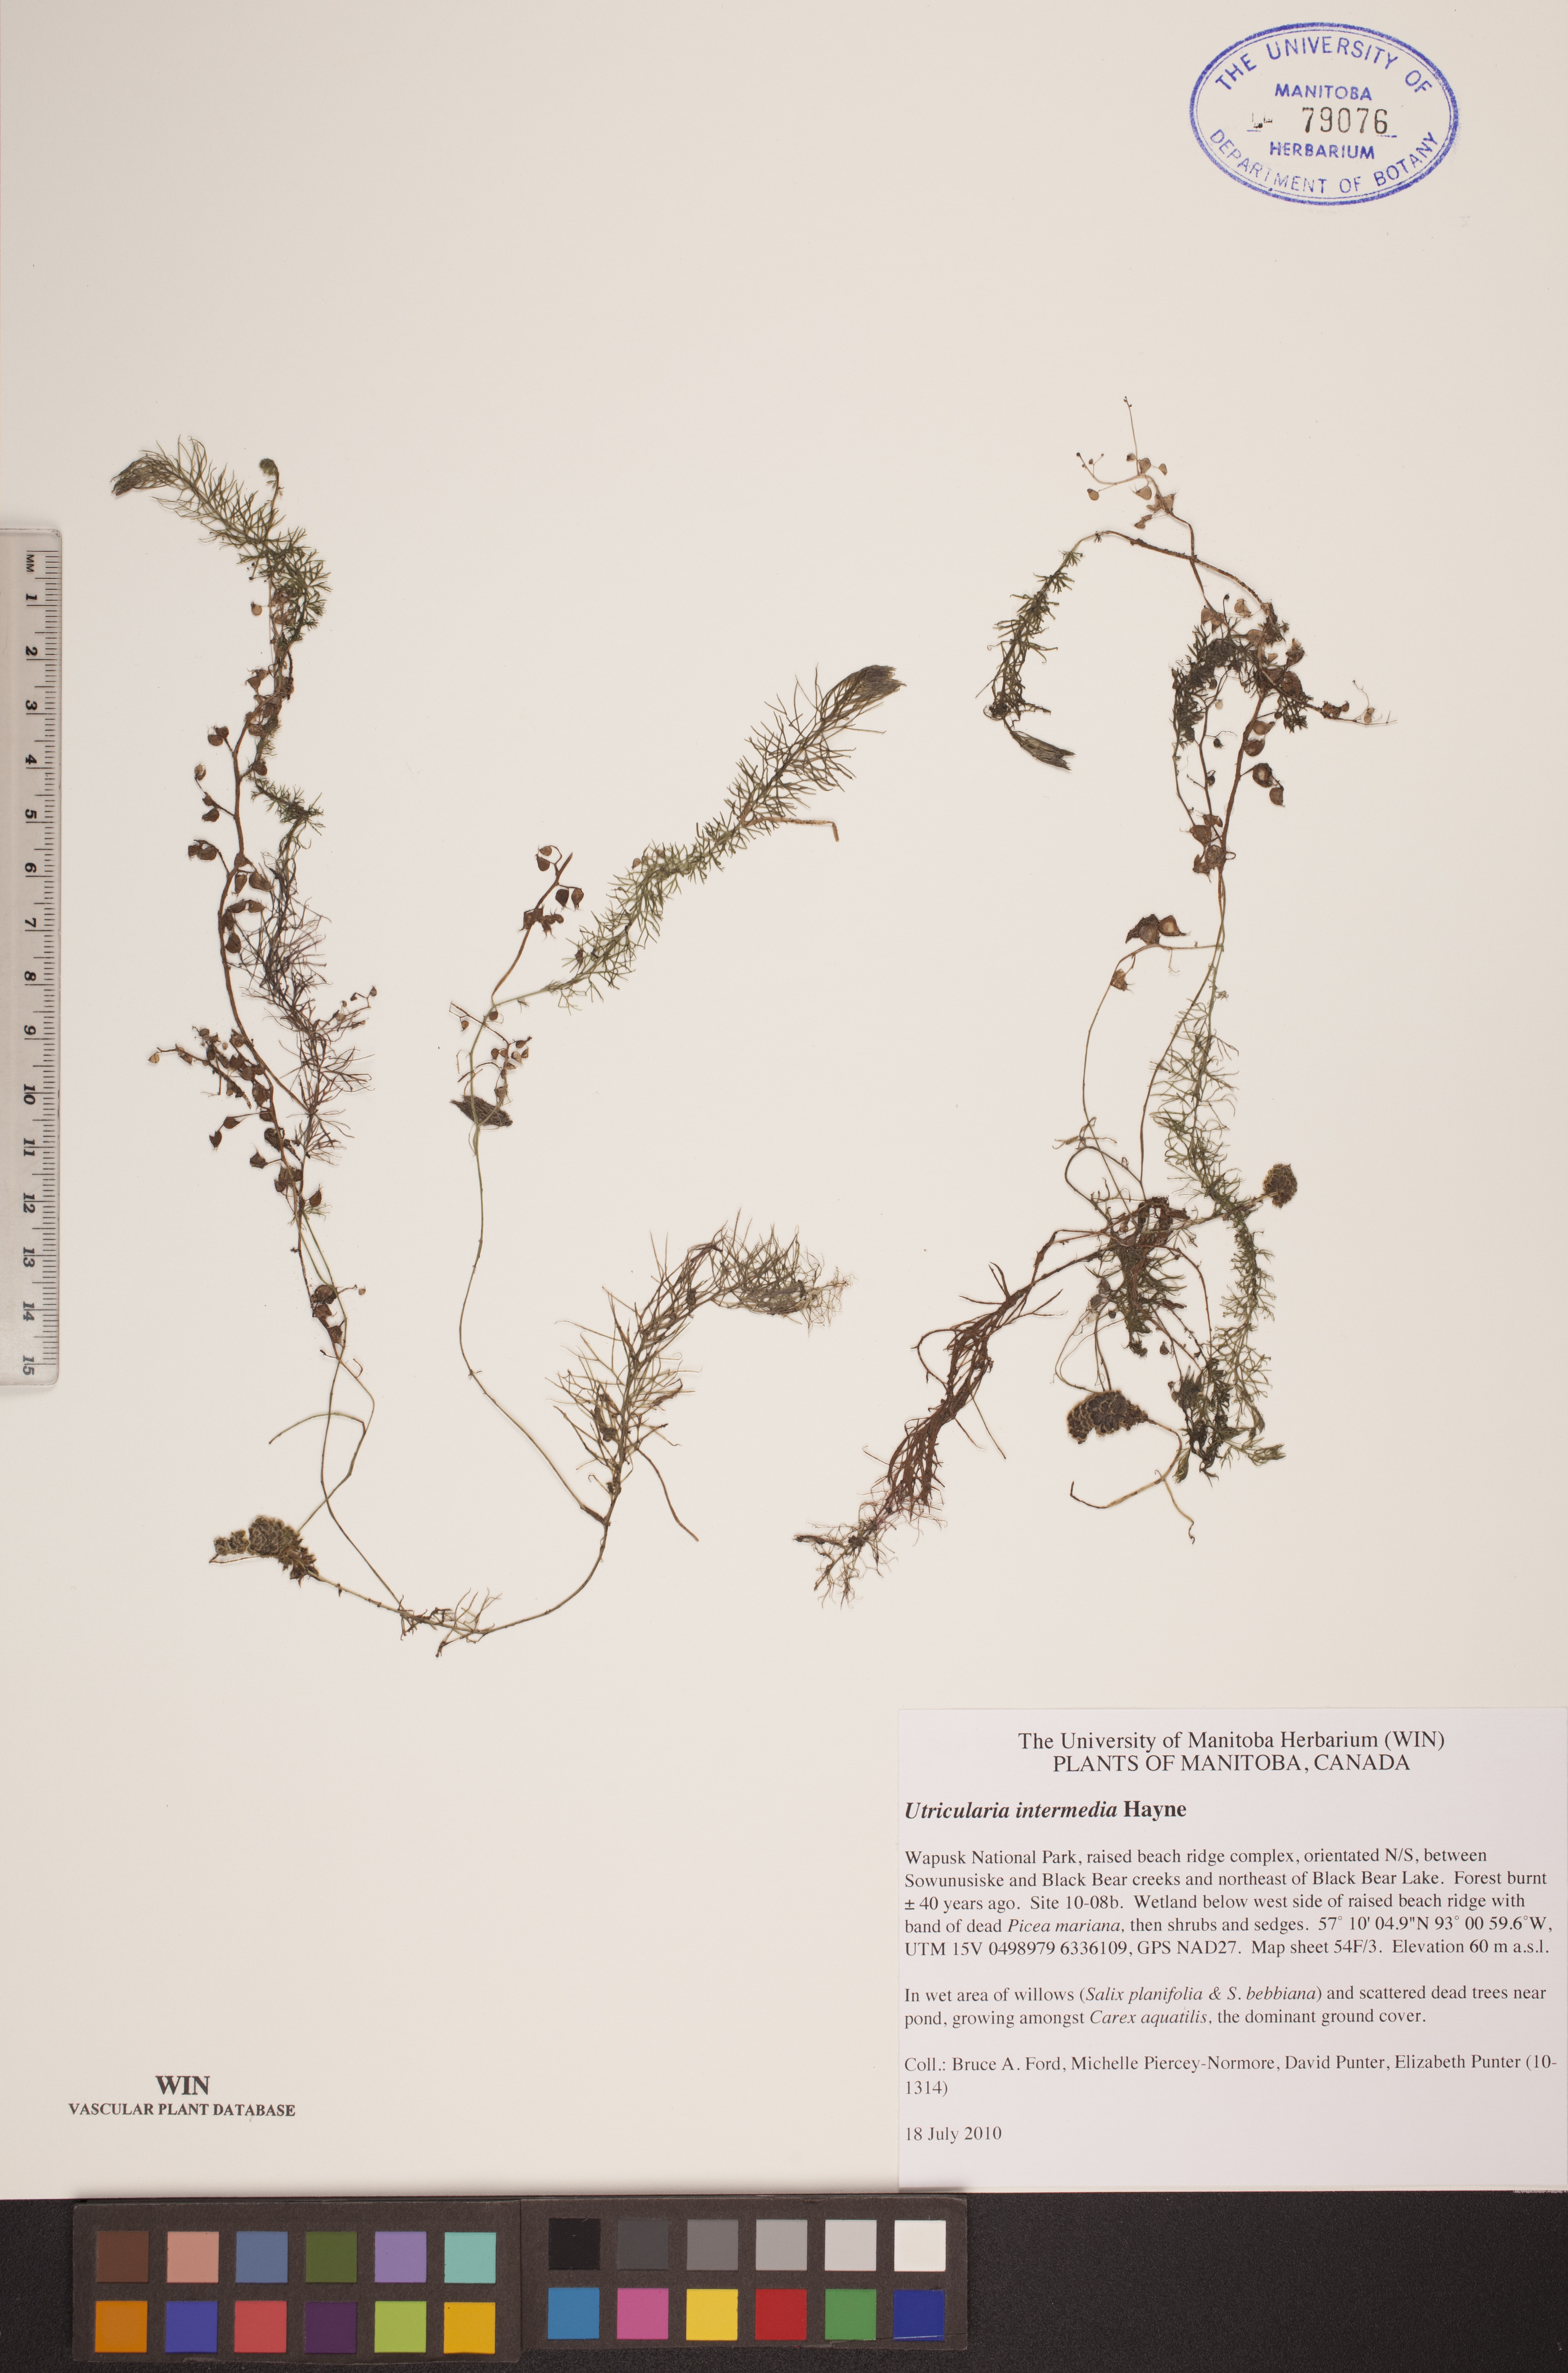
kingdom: Plantae
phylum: Tracheophyta
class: Magnoliopsida
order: Lamiales
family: Lentibulariaceae
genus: Utricularia
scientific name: Utricularia intermedia
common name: Intermediate bladderwort
